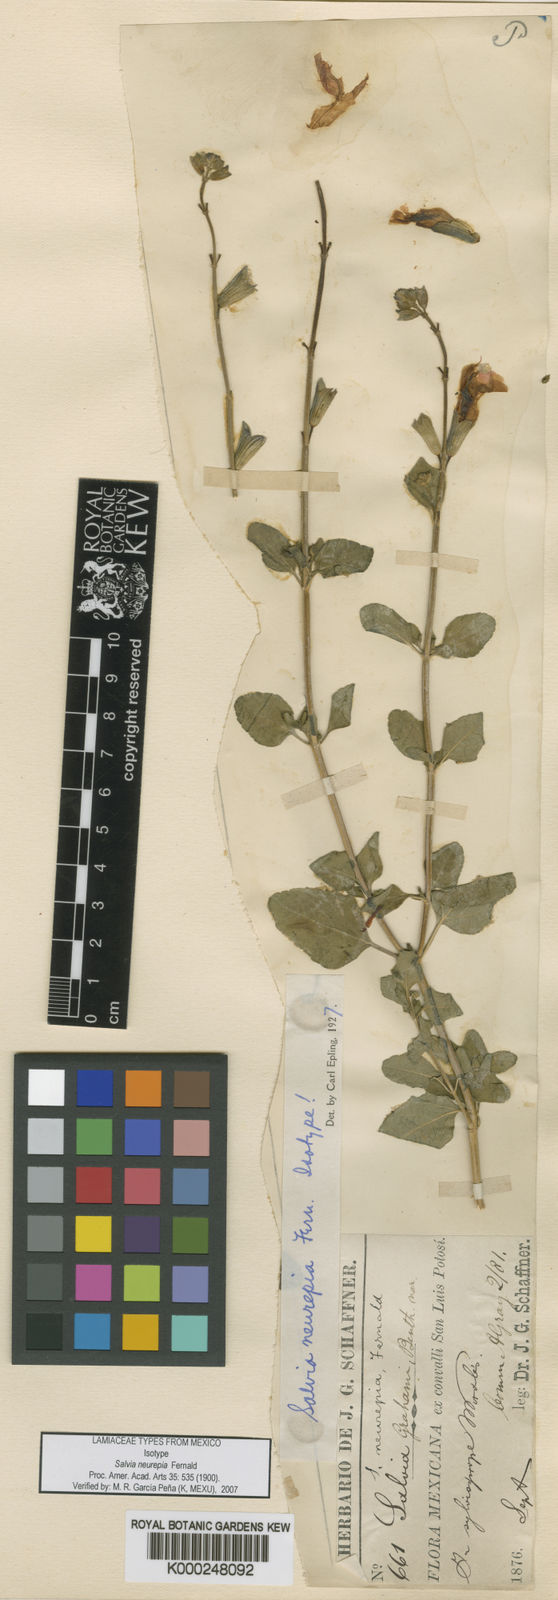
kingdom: Plantae
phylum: Tracheophyta
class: Magnoliopsida
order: Lamiales
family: Lamiaceae
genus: Salvia
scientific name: Salvia microphylla
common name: Baby sage
